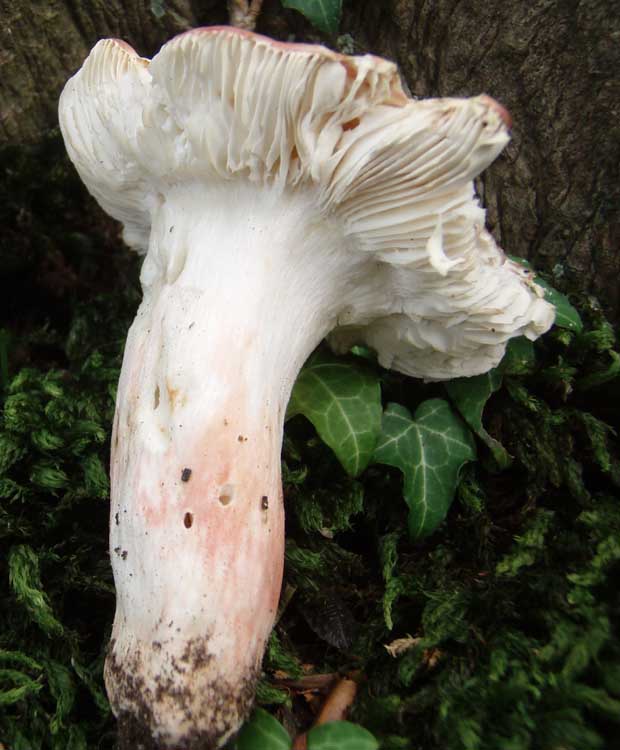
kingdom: Fungi
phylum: Basidiomycota
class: Agaricomycetes
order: Russulales
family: Russulaceae
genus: Russula
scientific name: Russula rosea
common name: fastkødet skørhat
